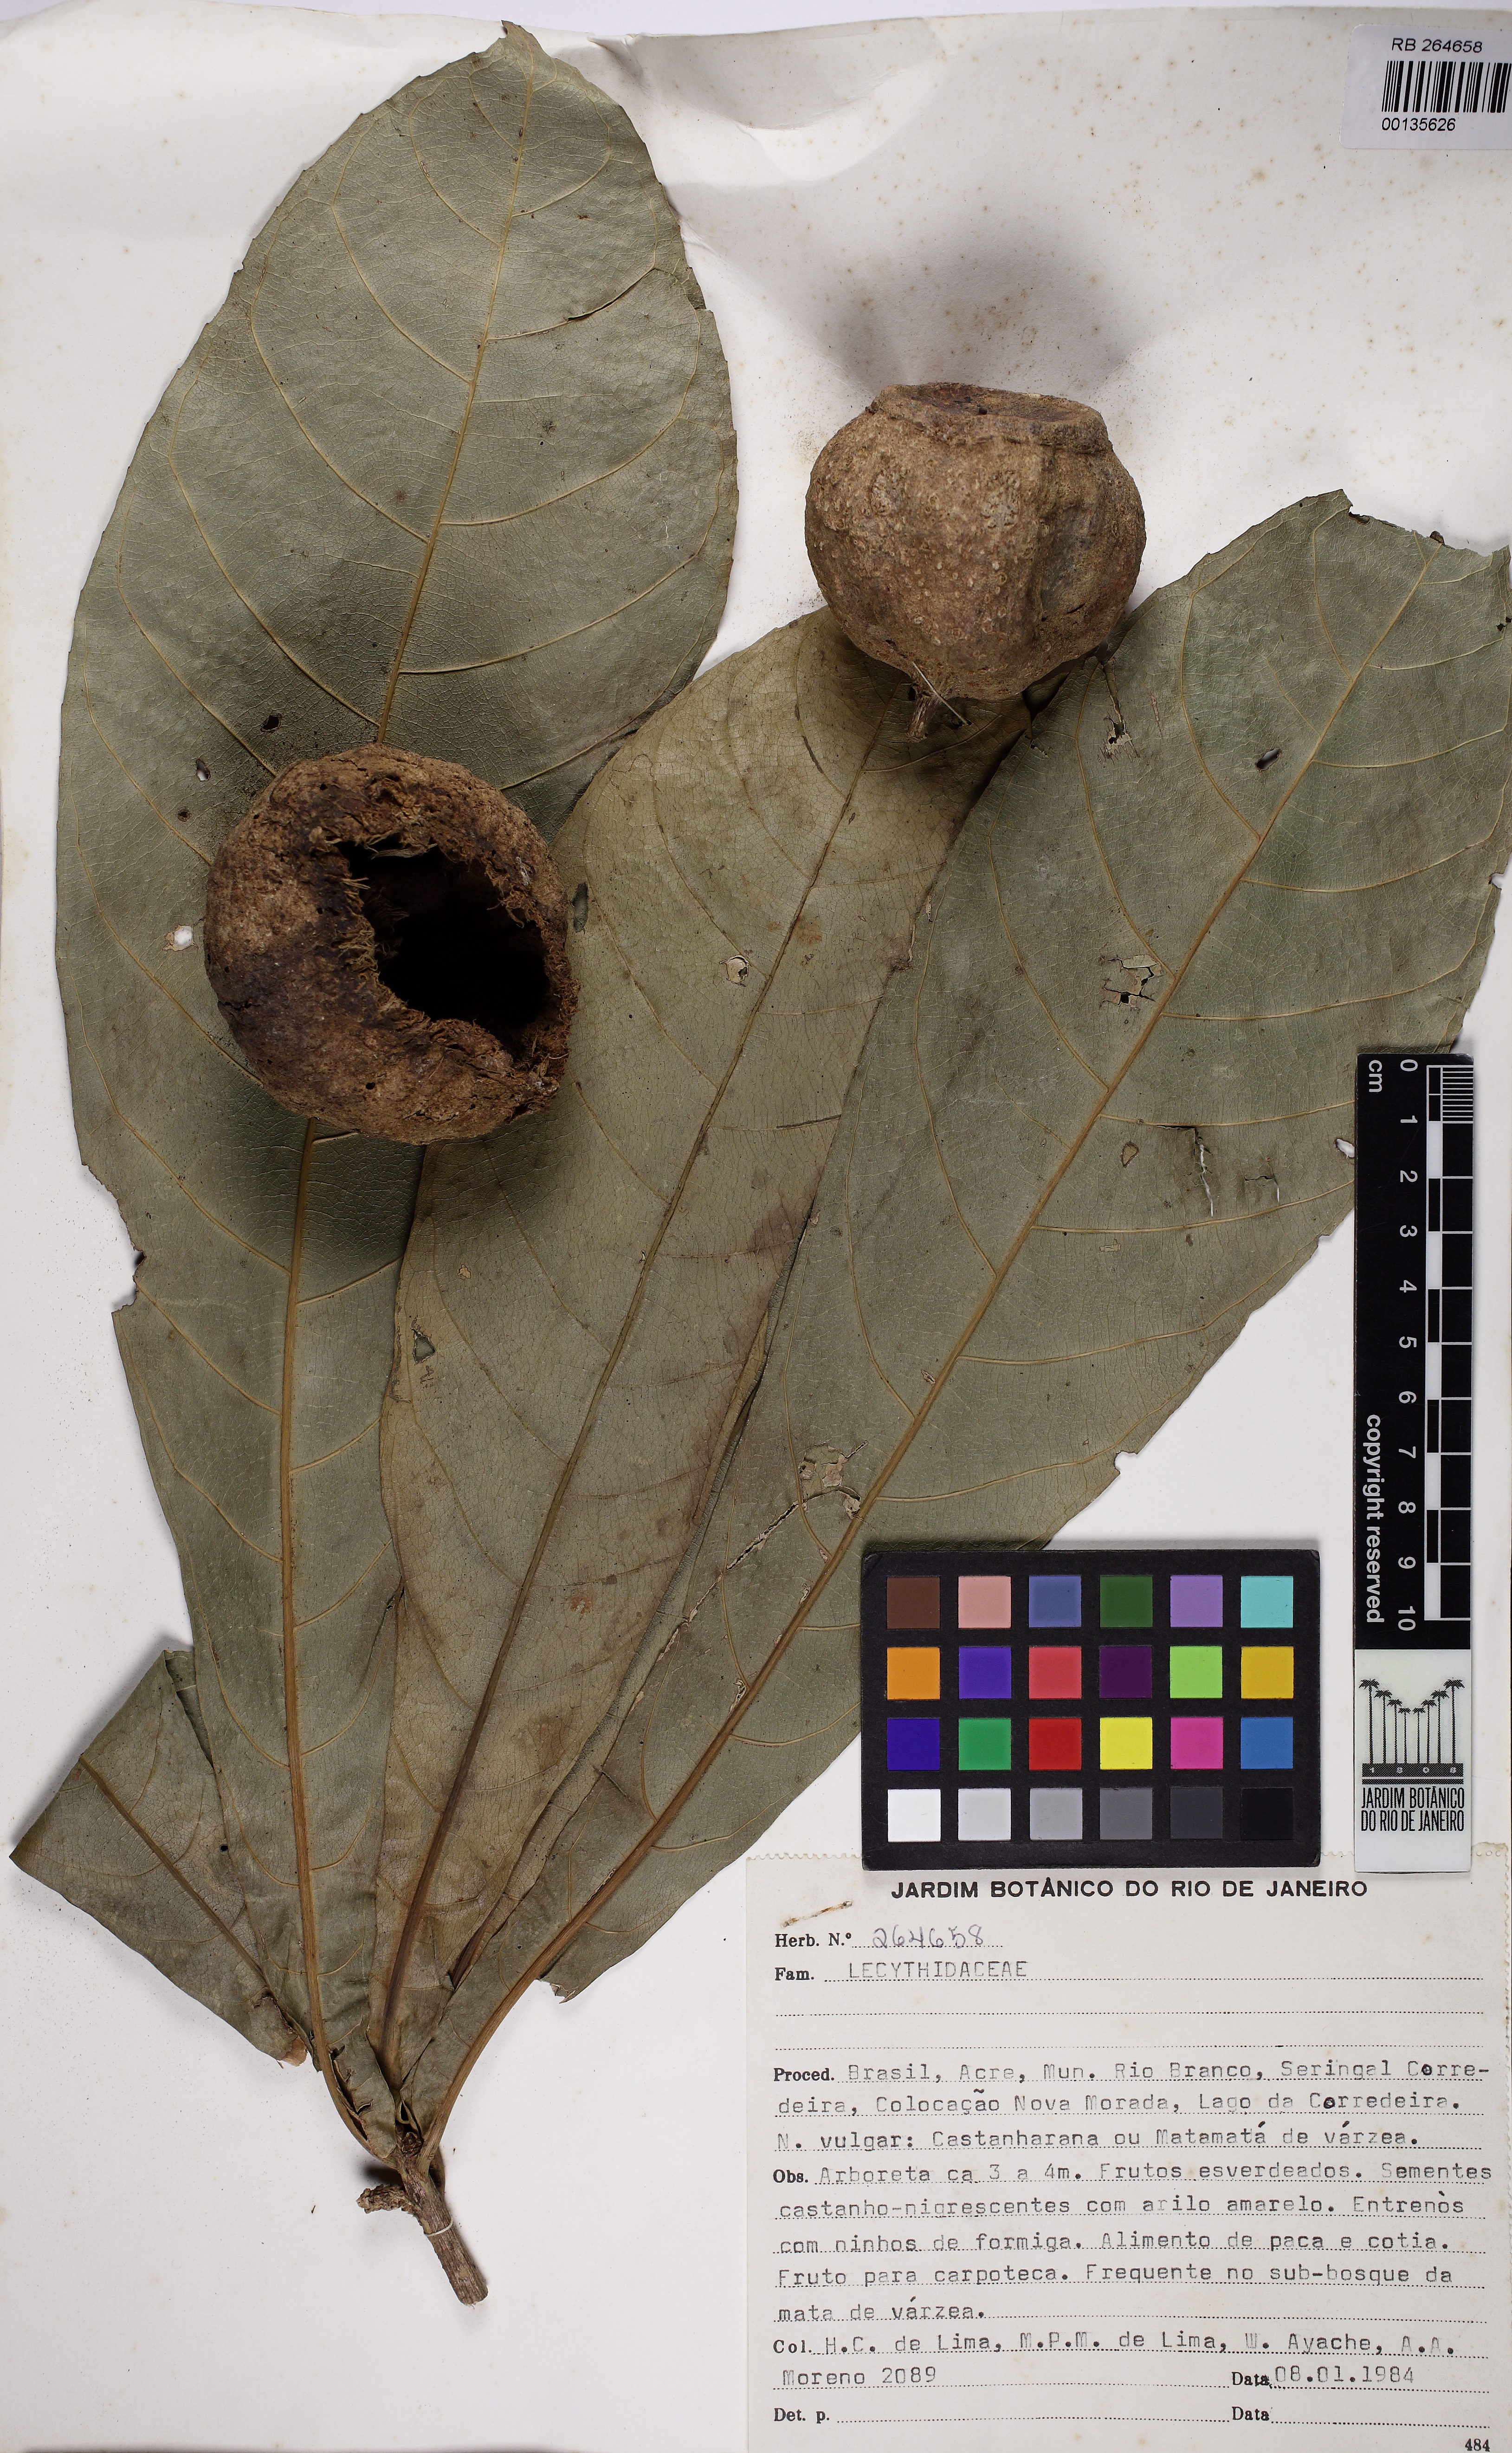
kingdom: Plantae
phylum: Tracheophyta
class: Magnoliopsida
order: Ericales
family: Lecythidaceae
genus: Gustavia
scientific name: Gustavia poeppigiana
